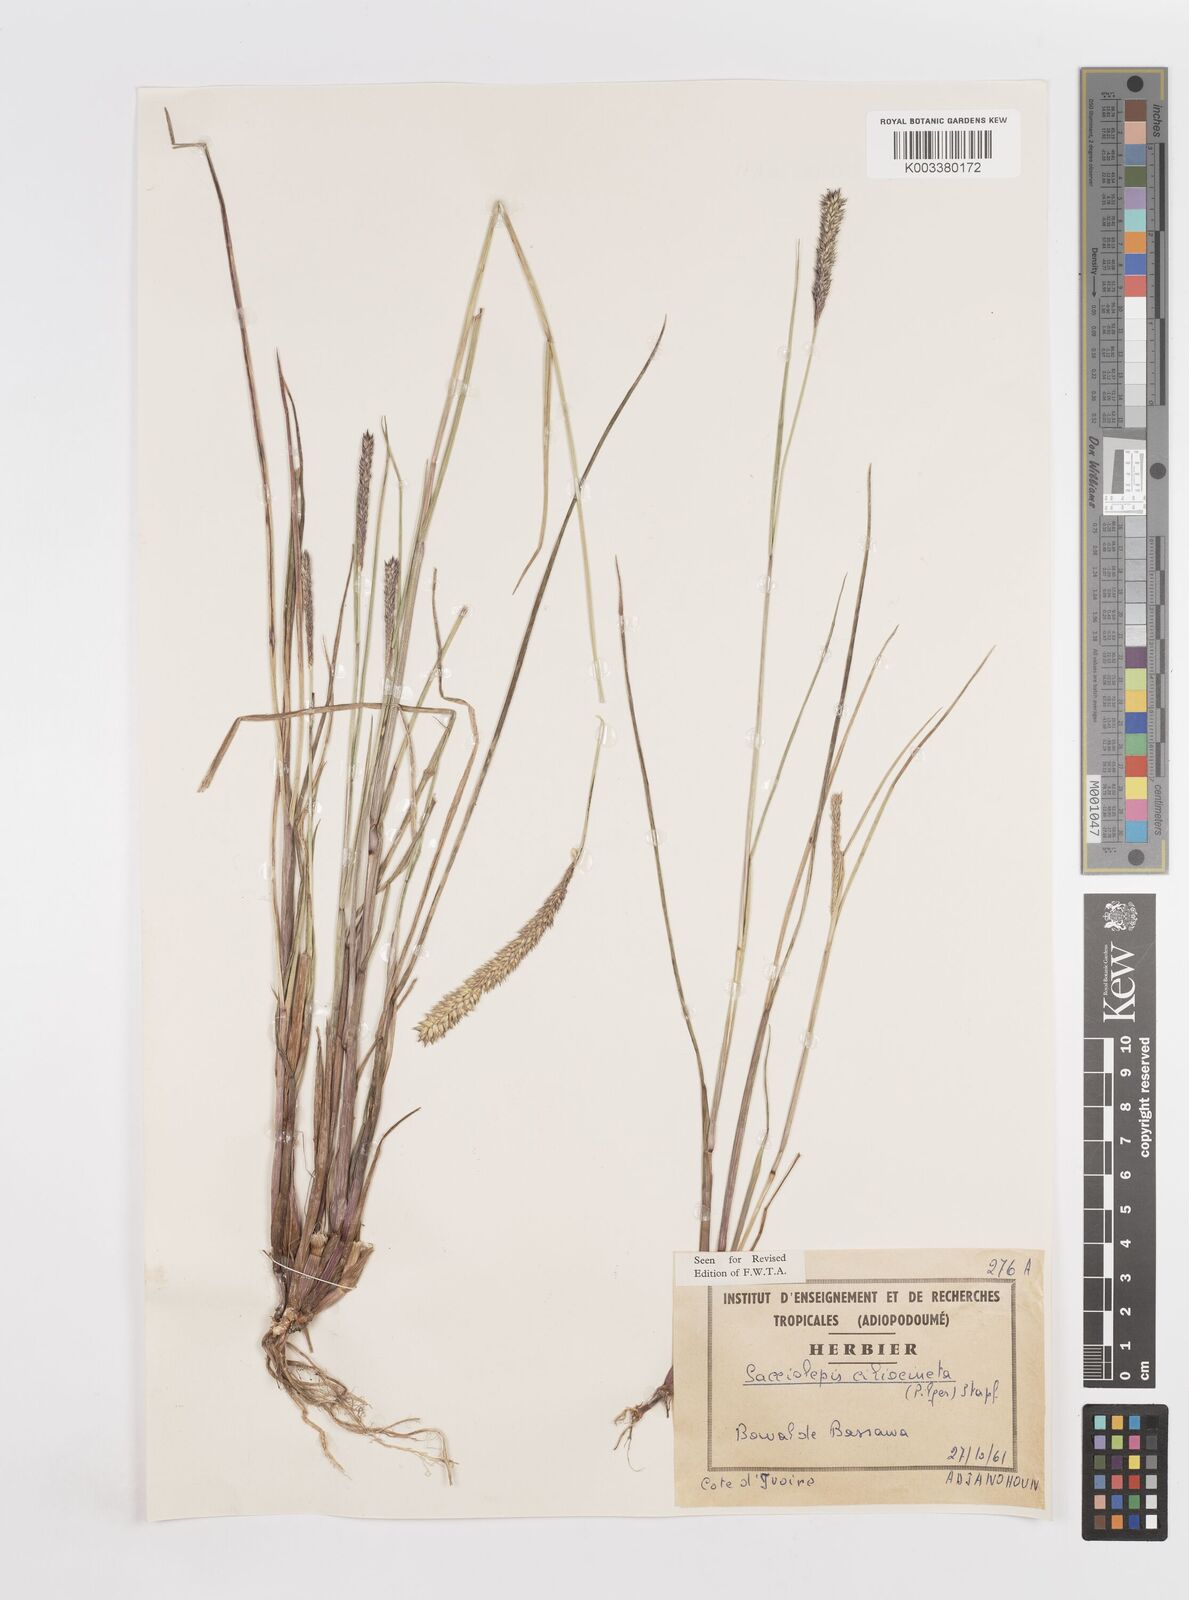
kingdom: Plantae
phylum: Tracheophyta
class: Liliopsida
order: Poales
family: Poaceae
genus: Sacciolepis
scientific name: Sacciolepis ciliocincta
